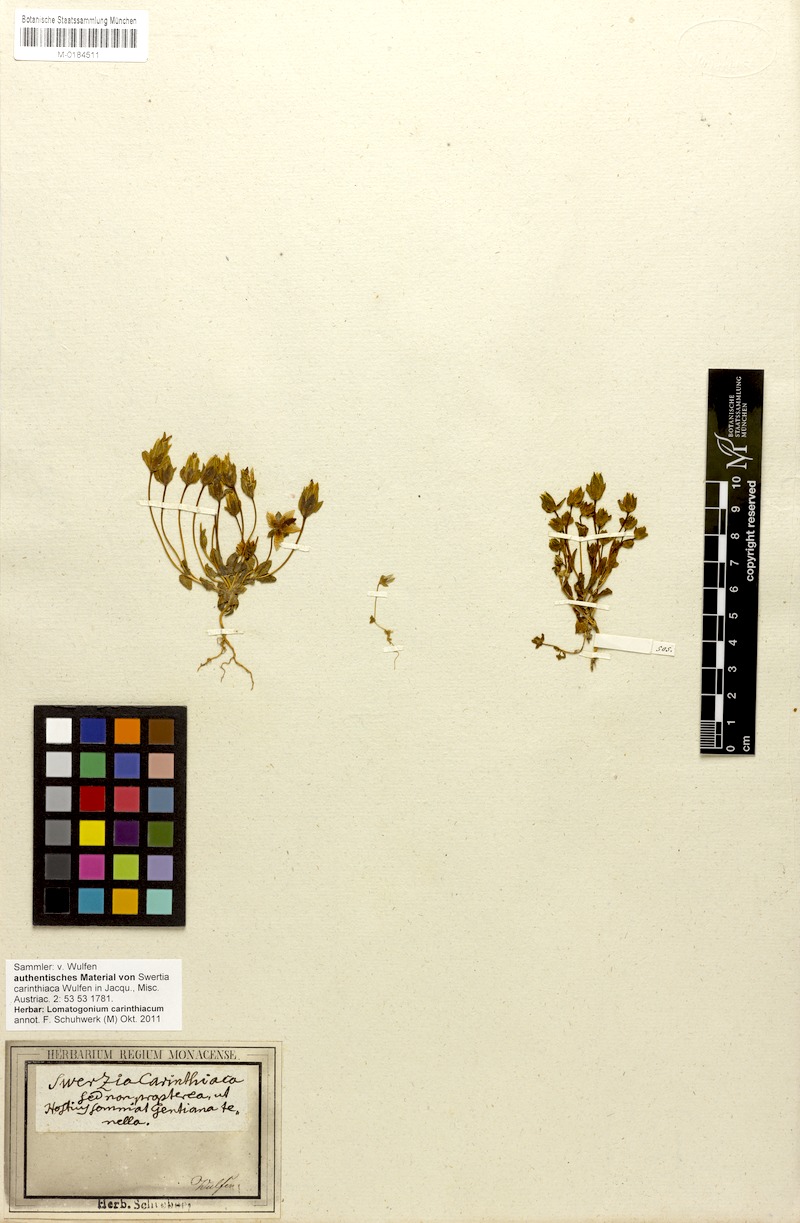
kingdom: Plantae
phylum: Tracheophyta
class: Magnoliopsida
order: Gentianales
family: Gentianaceae
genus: Lomatogonium
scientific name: Lomatogonium carinthiacum
